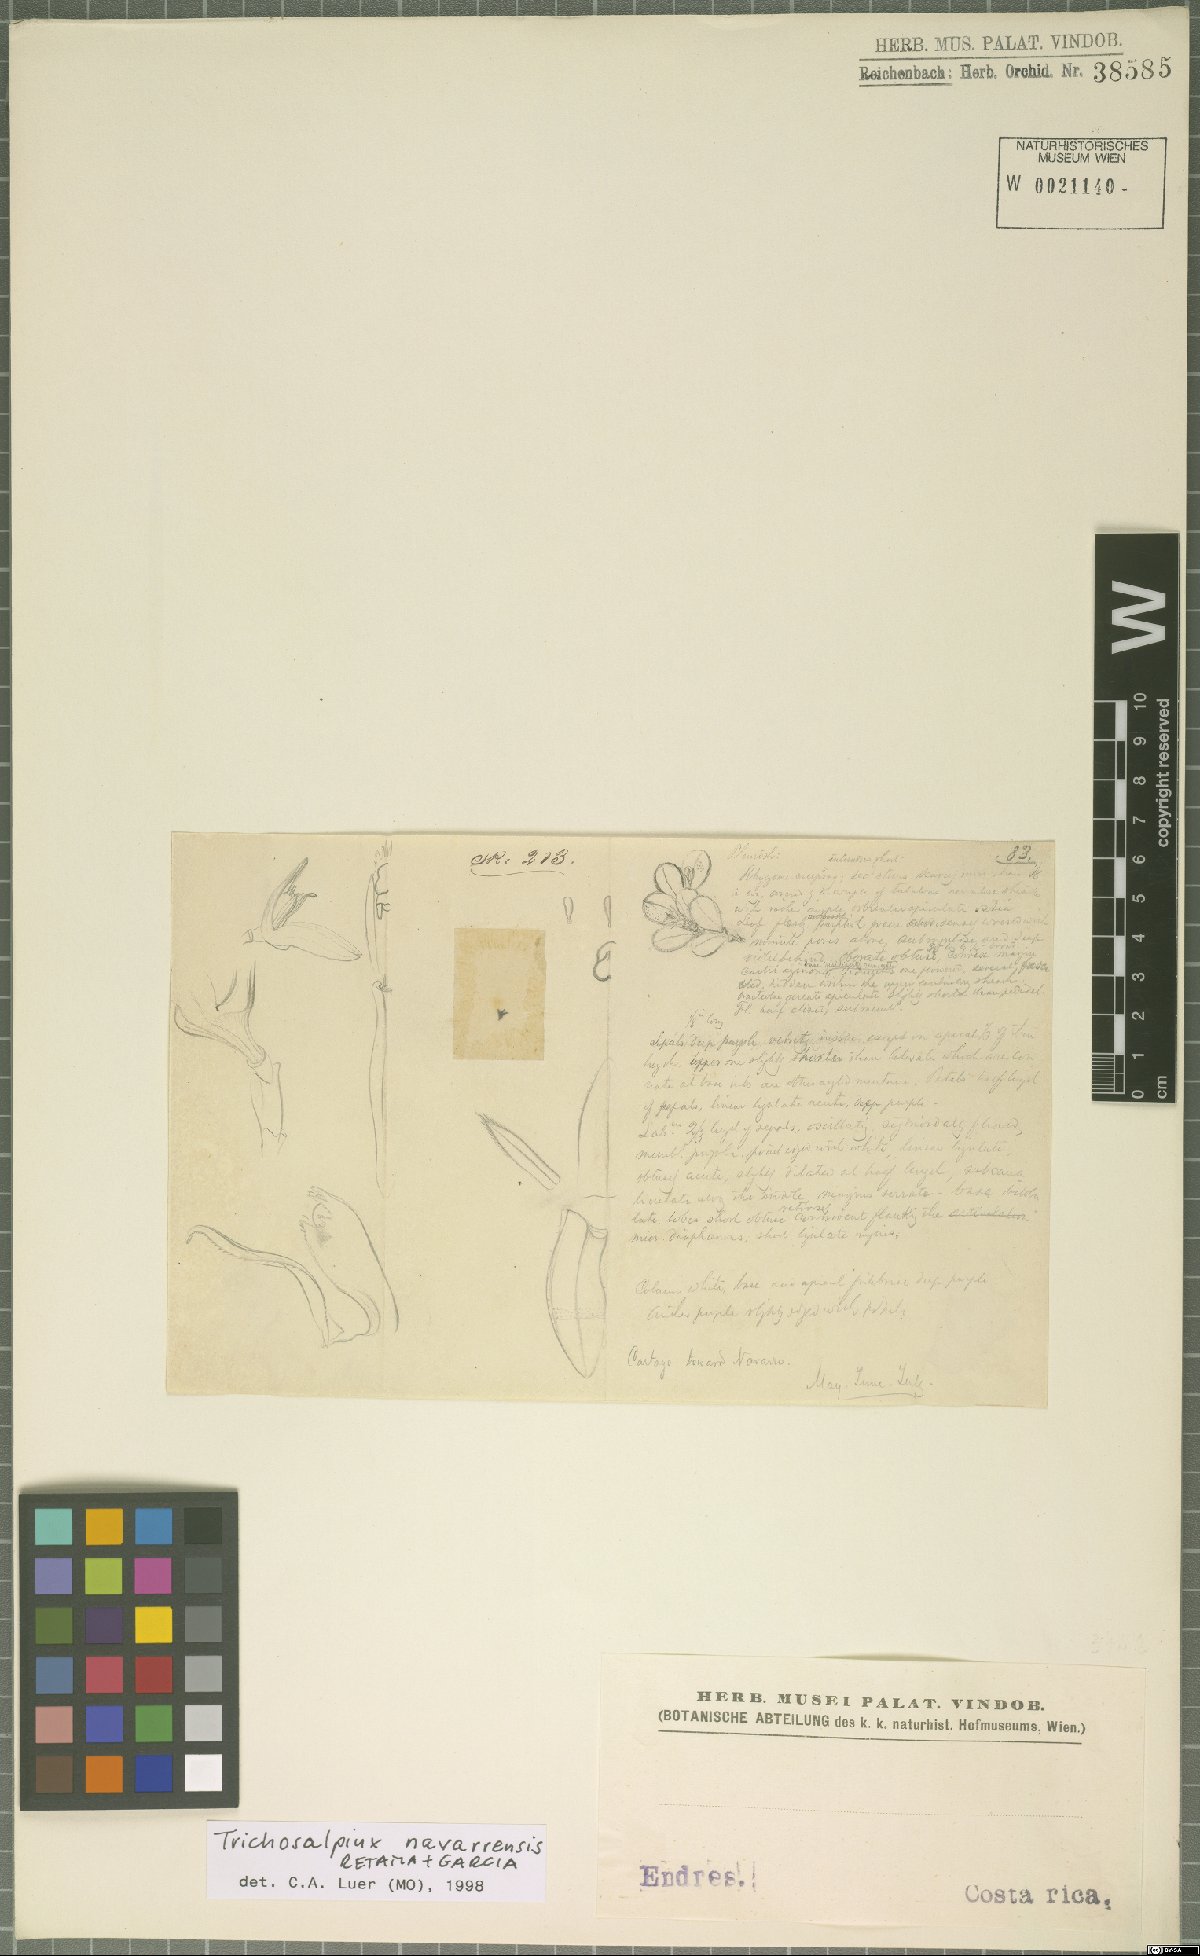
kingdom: Plantae
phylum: Tracheophyta
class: Liliopsida
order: Asparagales
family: Orchidaceae
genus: Trichosalpinx
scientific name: Trichosalpinx navarrensis
